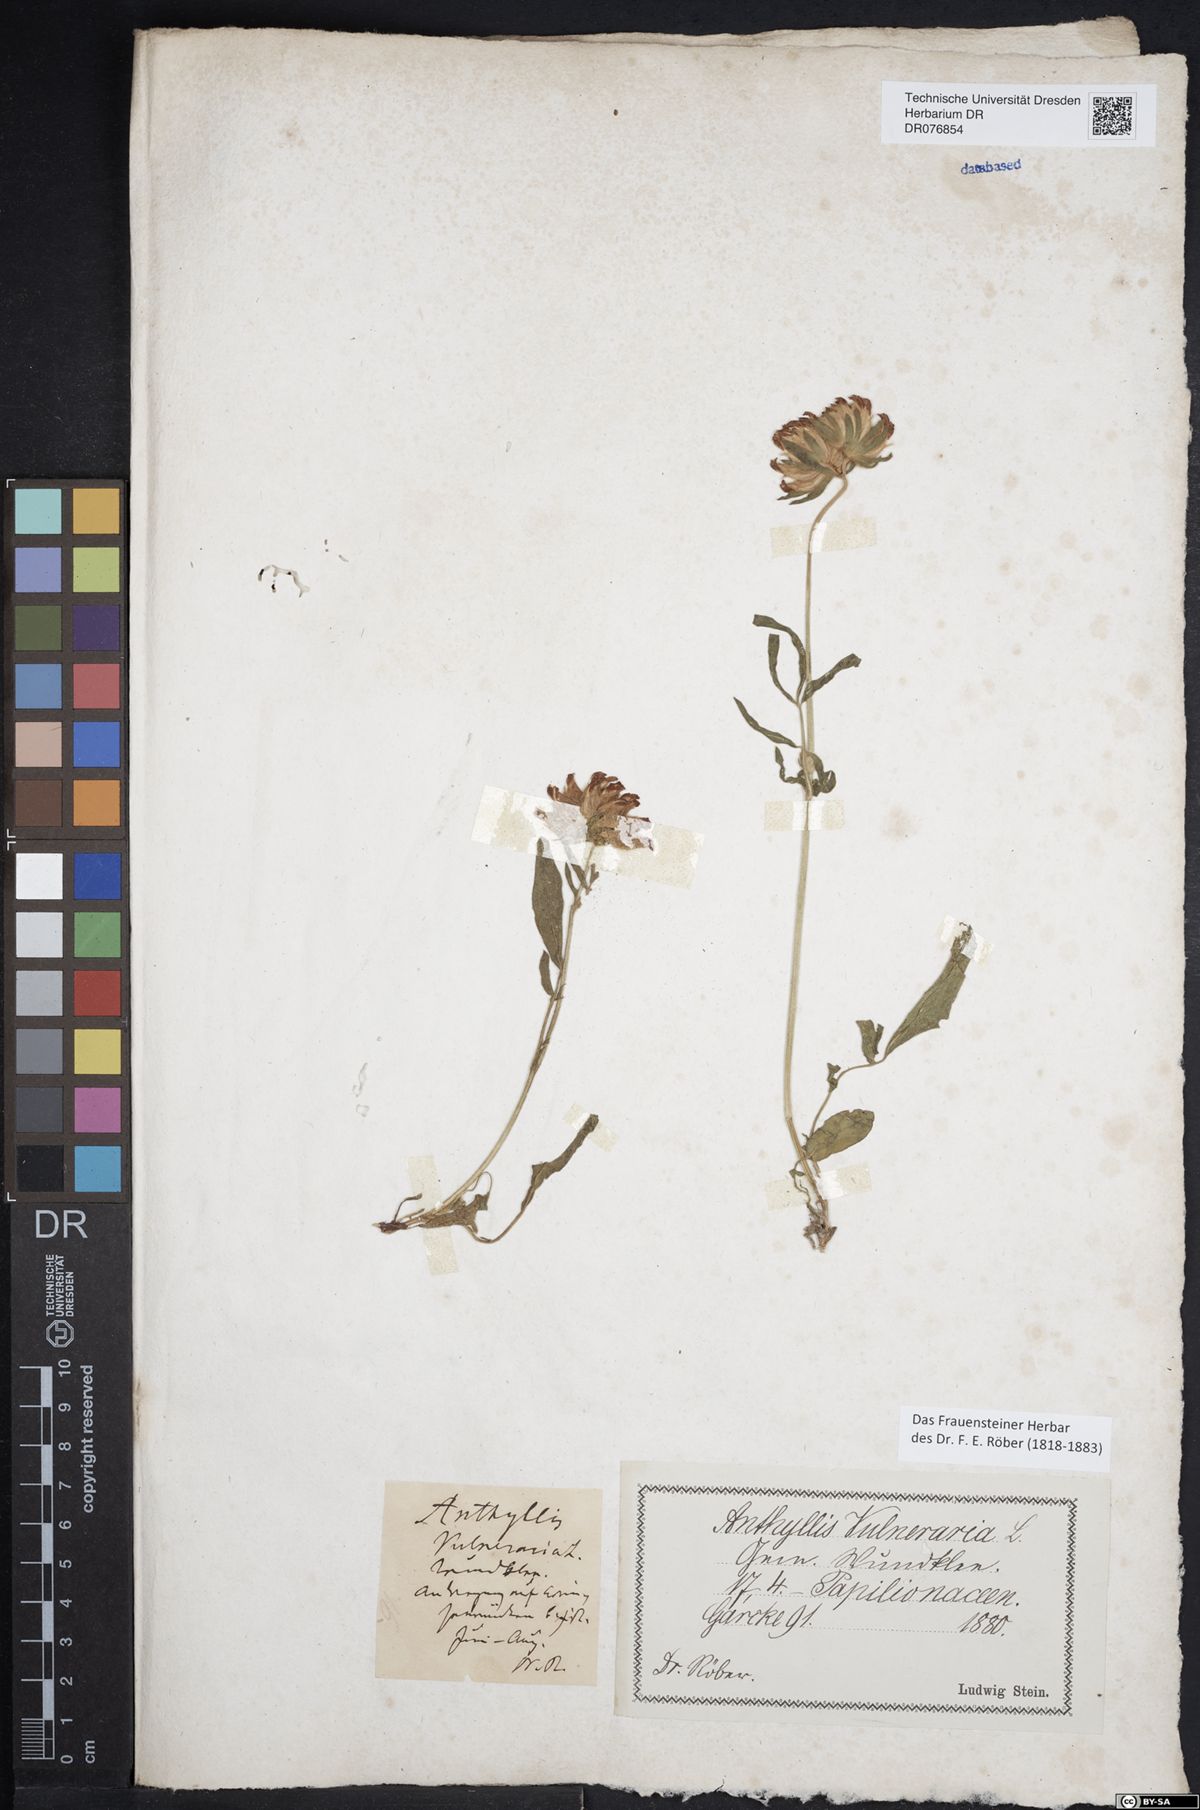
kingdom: Plantae
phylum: Tracheophyta
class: Magnoliopsida
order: Fabales
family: Fabaceae
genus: Anthyllis
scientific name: Anthyllis vulneraria
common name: Kidney vetch
